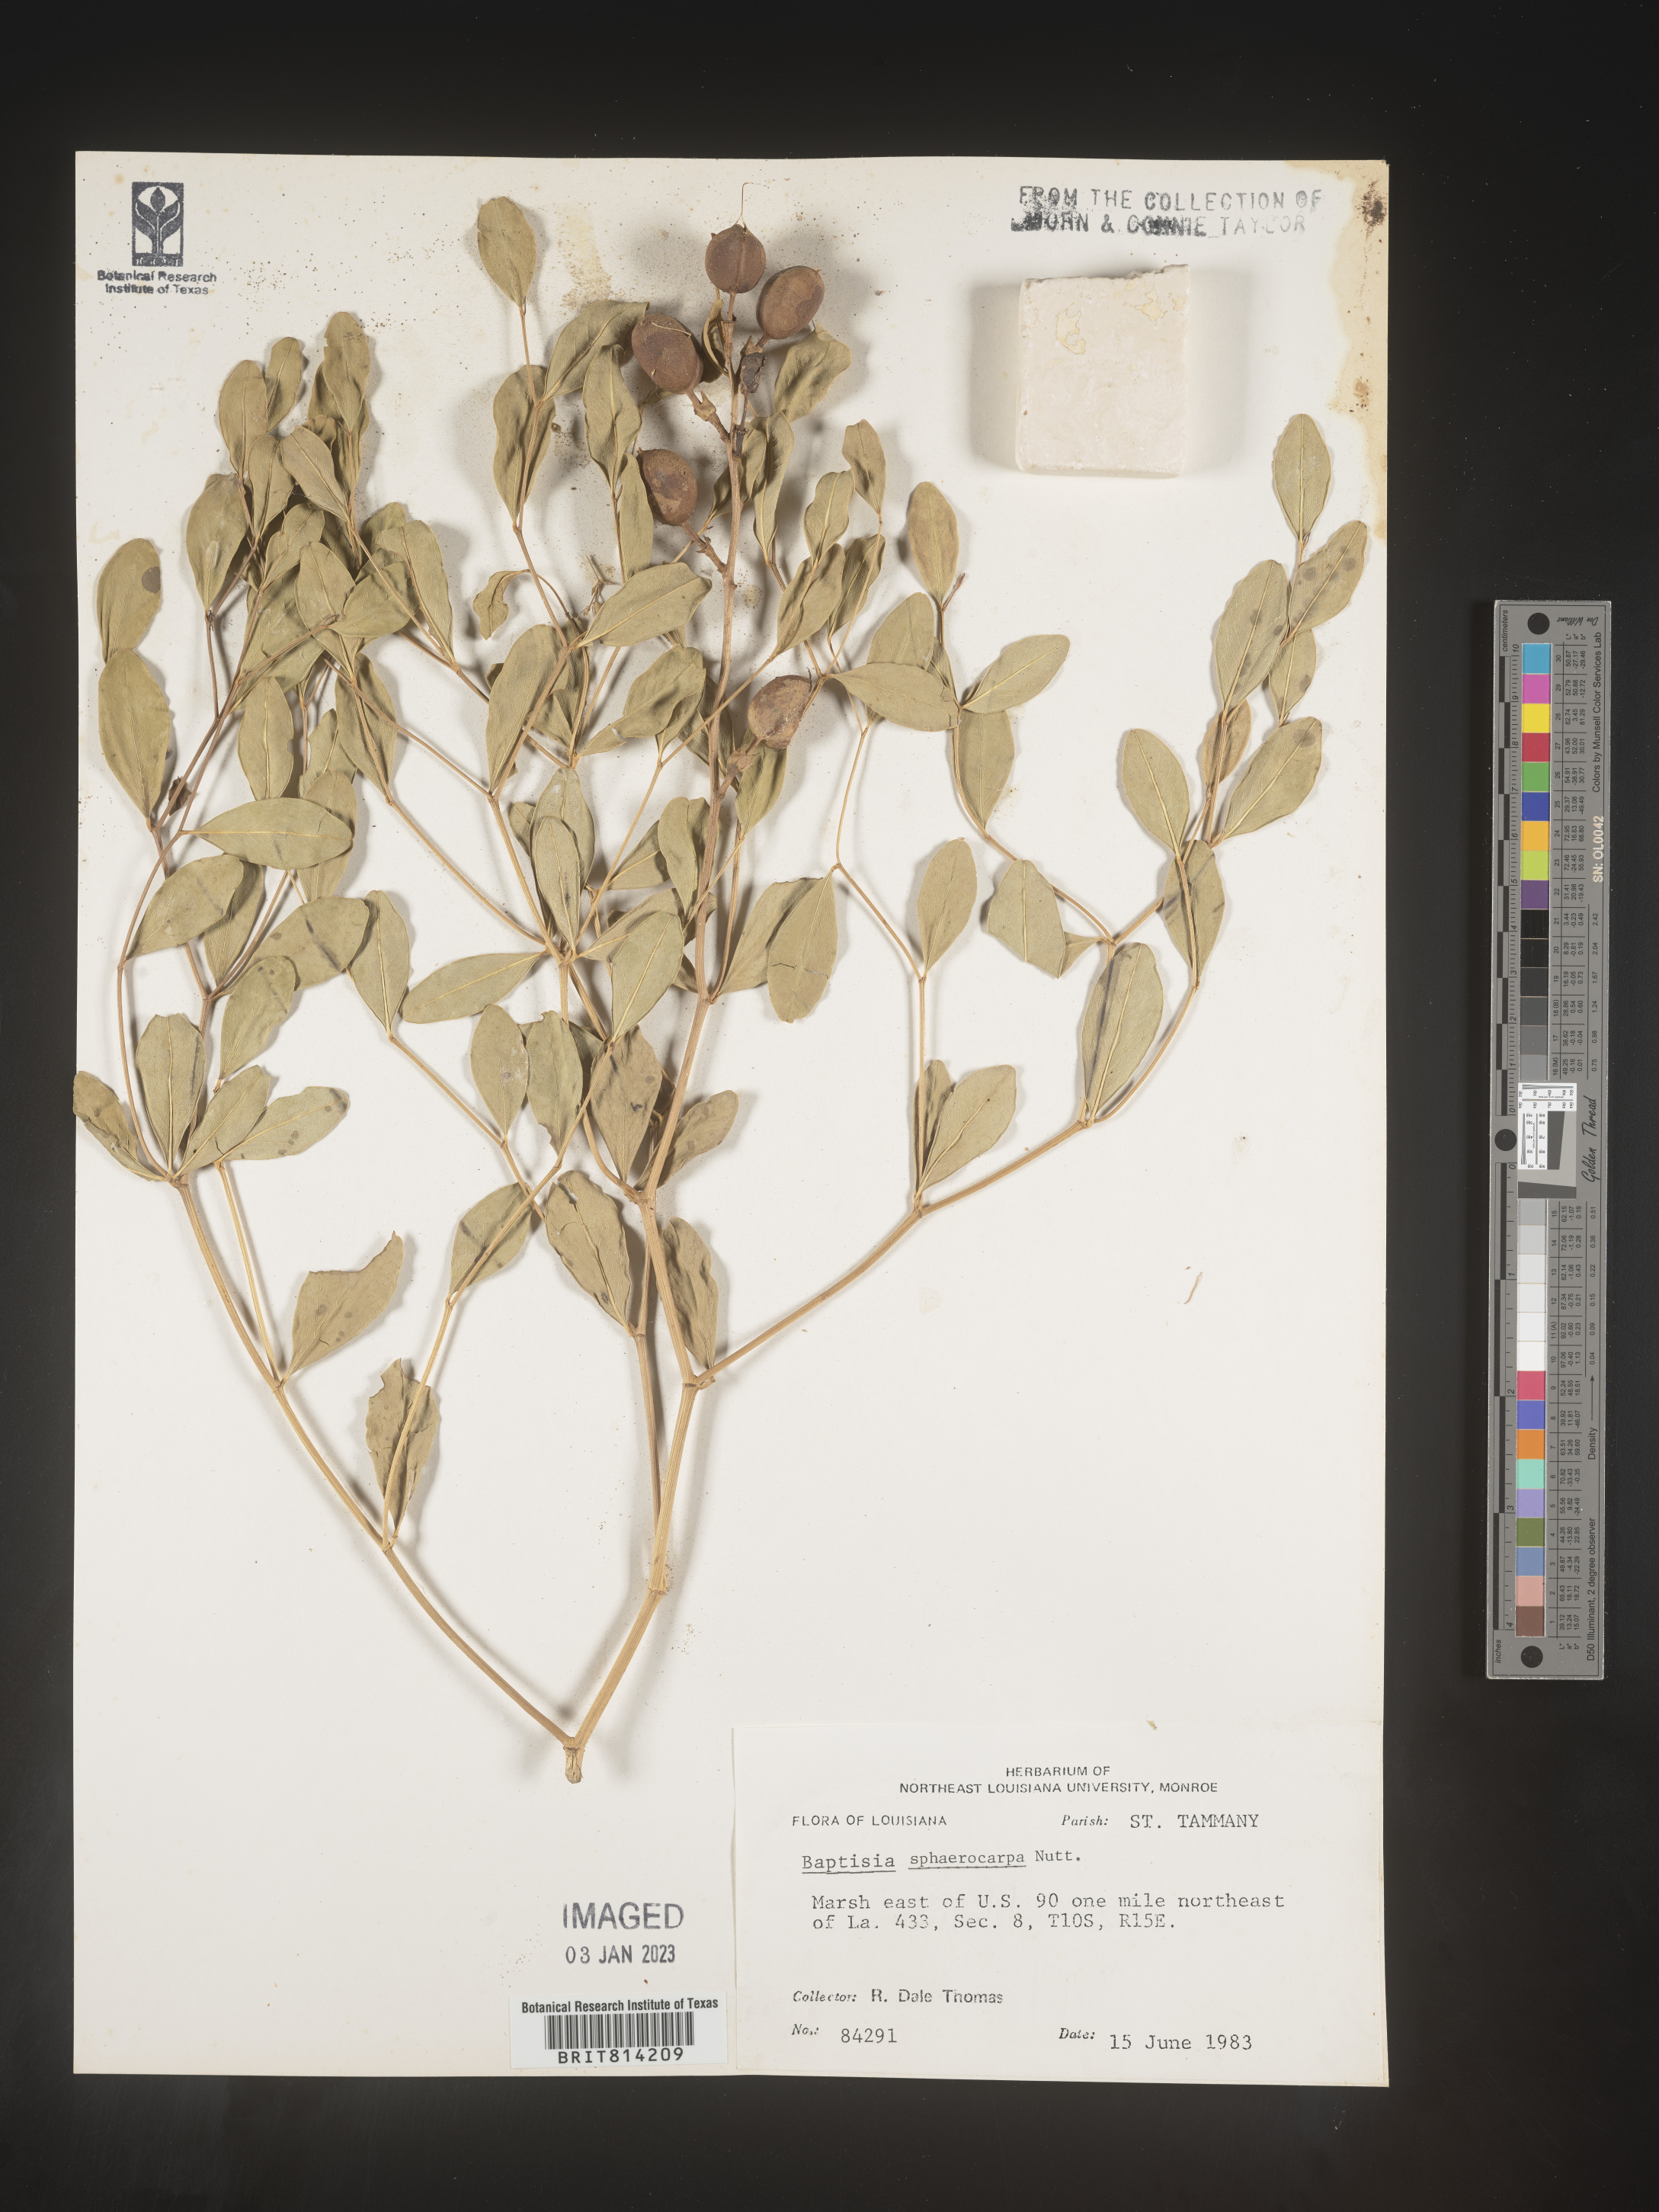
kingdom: Plantae
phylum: Tracheophyta
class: Magnoliopsida
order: Fabales
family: Fabaceae
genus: Baptisia
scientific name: Baptisia sphaerocarpa
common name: Round wild indigo
